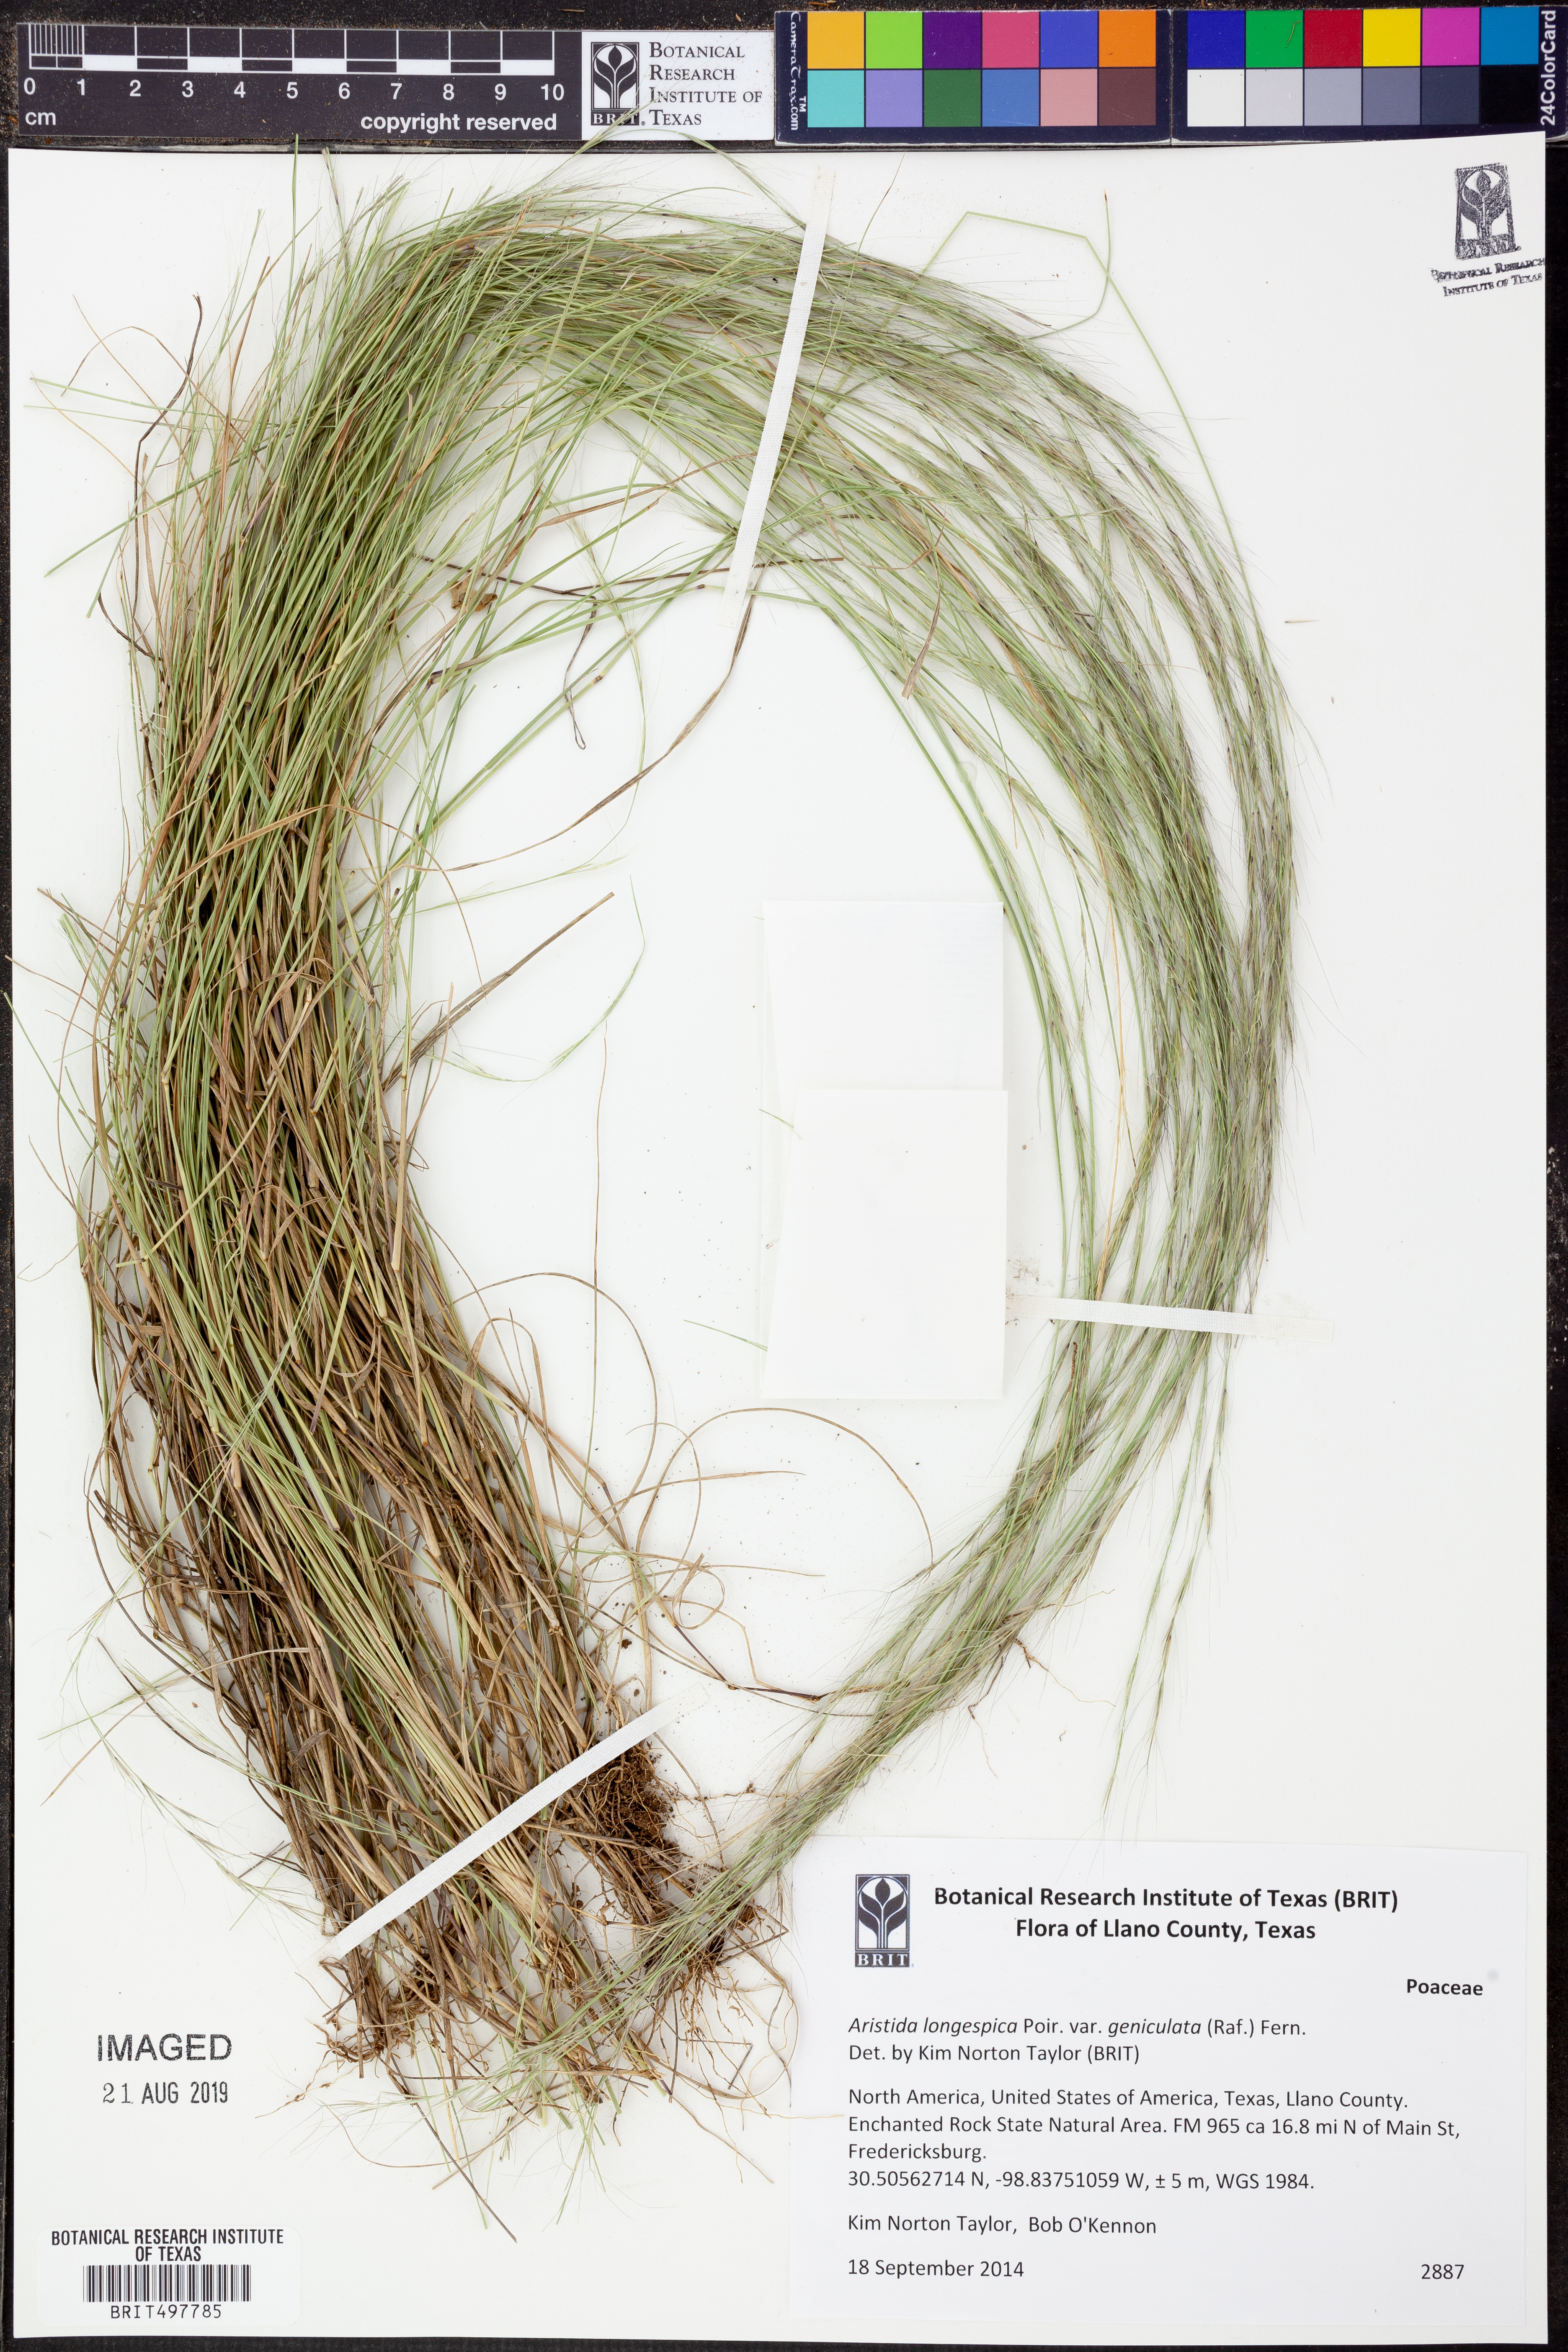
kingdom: Plantae
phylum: Tracheophyta
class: Liliopsida
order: Poales
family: Poaceae
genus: Aristida
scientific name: Aristida longespica
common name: Long-spiked triple-awned grass
